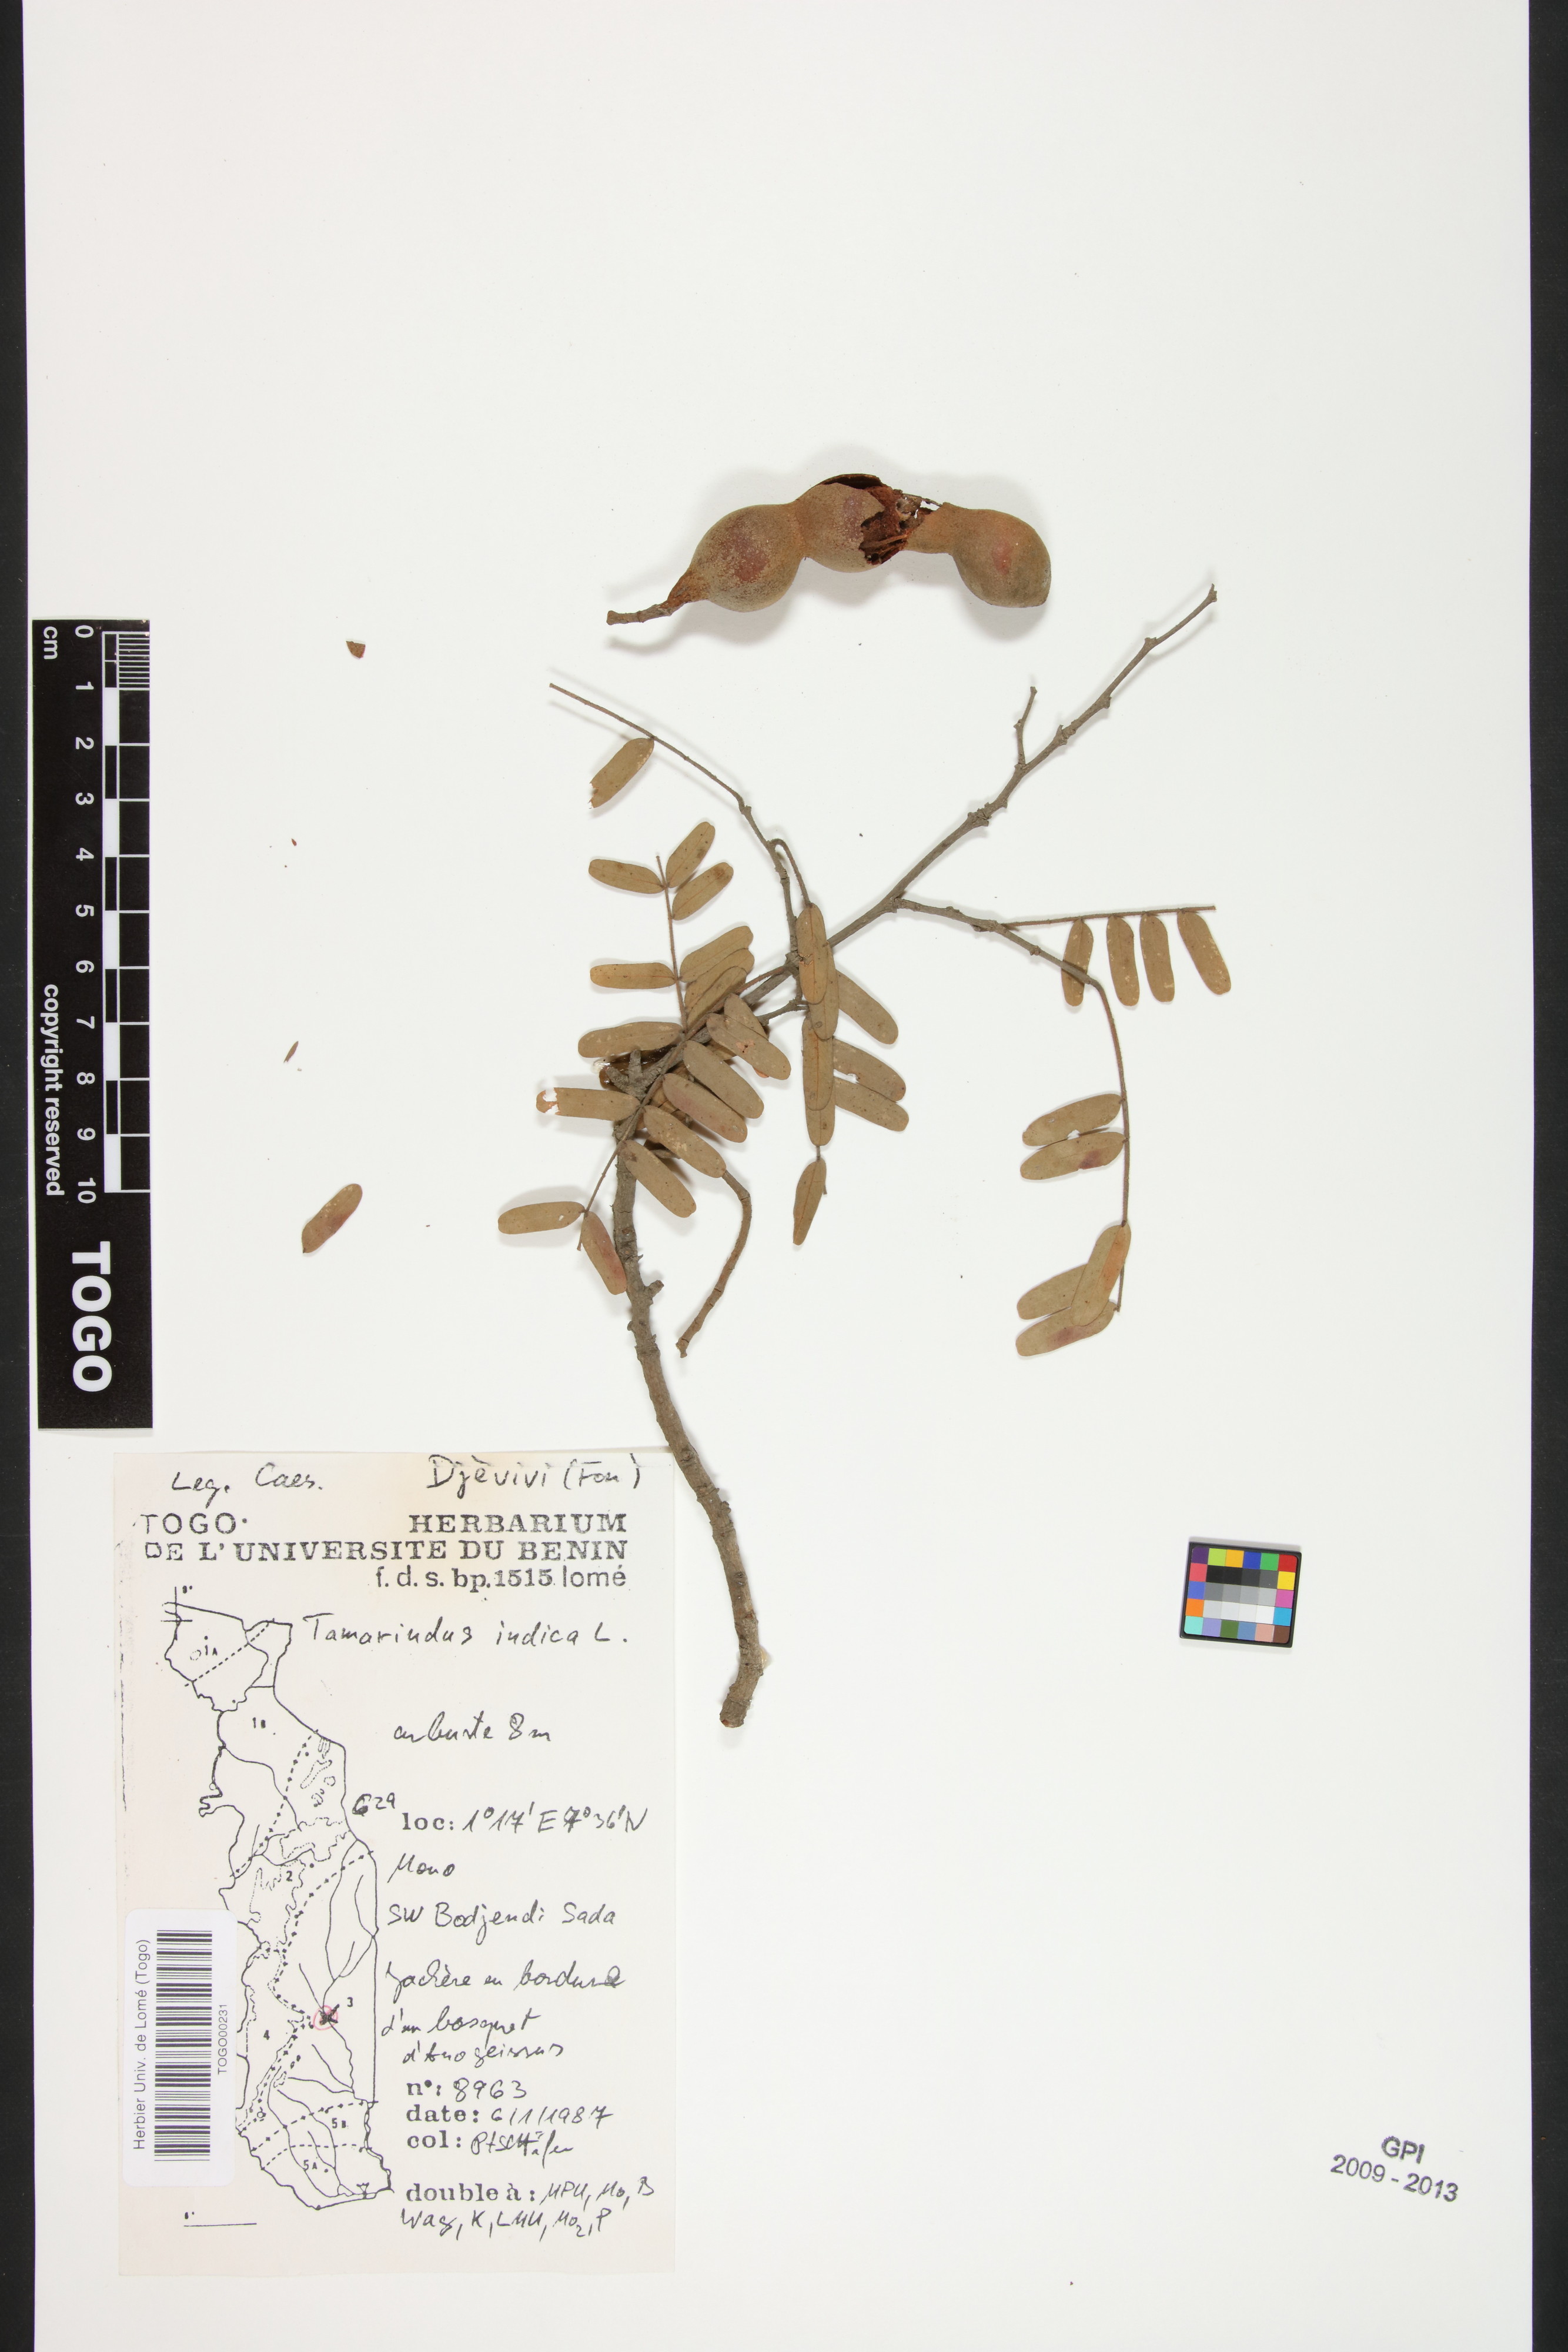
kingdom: Plantae
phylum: Tracheophyta
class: Magnoliopsida
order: Fabales
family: Fabaceae
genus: Tamarindus
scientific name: Tamarindus indica
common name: Tamarind
